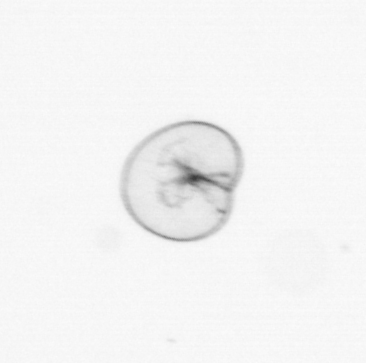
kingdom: Chromista
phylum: Myzozoa
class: Dinophyceae
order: Noctilucales
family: Noctilucaceae
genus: Noctiluca
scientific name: Noctiluca scintillans
